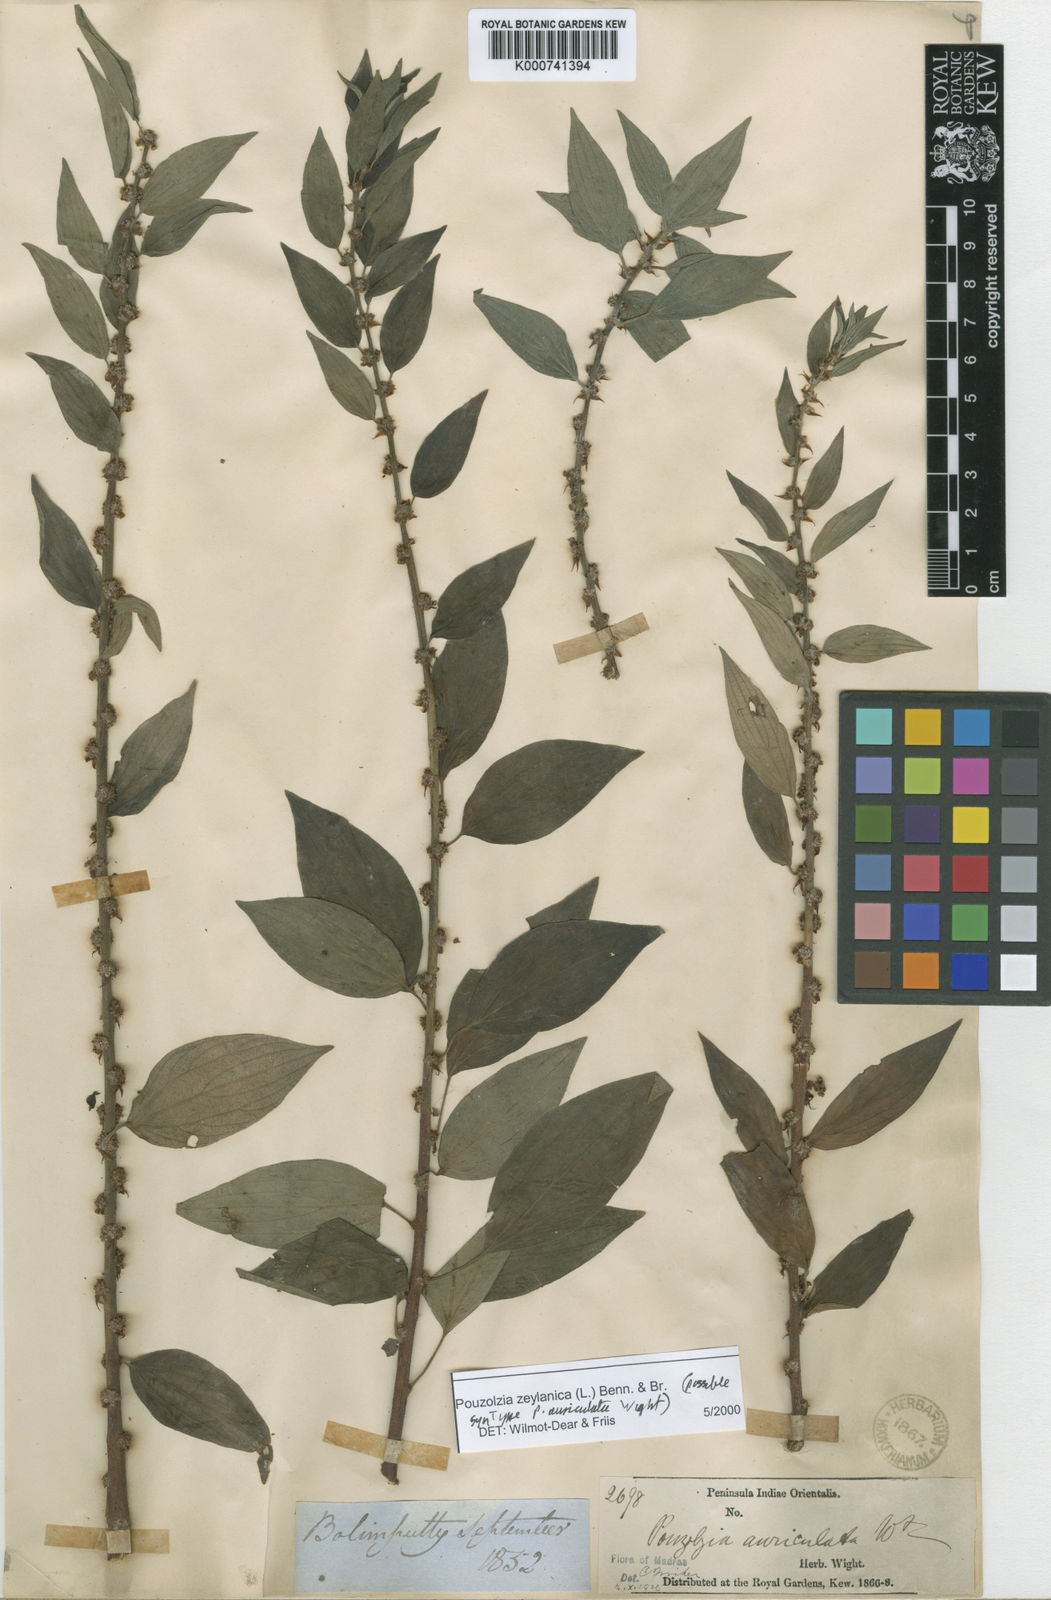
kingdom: Plantae
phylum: Tracheophyta
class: Magnoliopsida
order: Rosales
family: Urticaceae
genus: Pouzolzia
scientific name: Pouzolzia zeylanica
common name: Graceful pouzolzsbush
